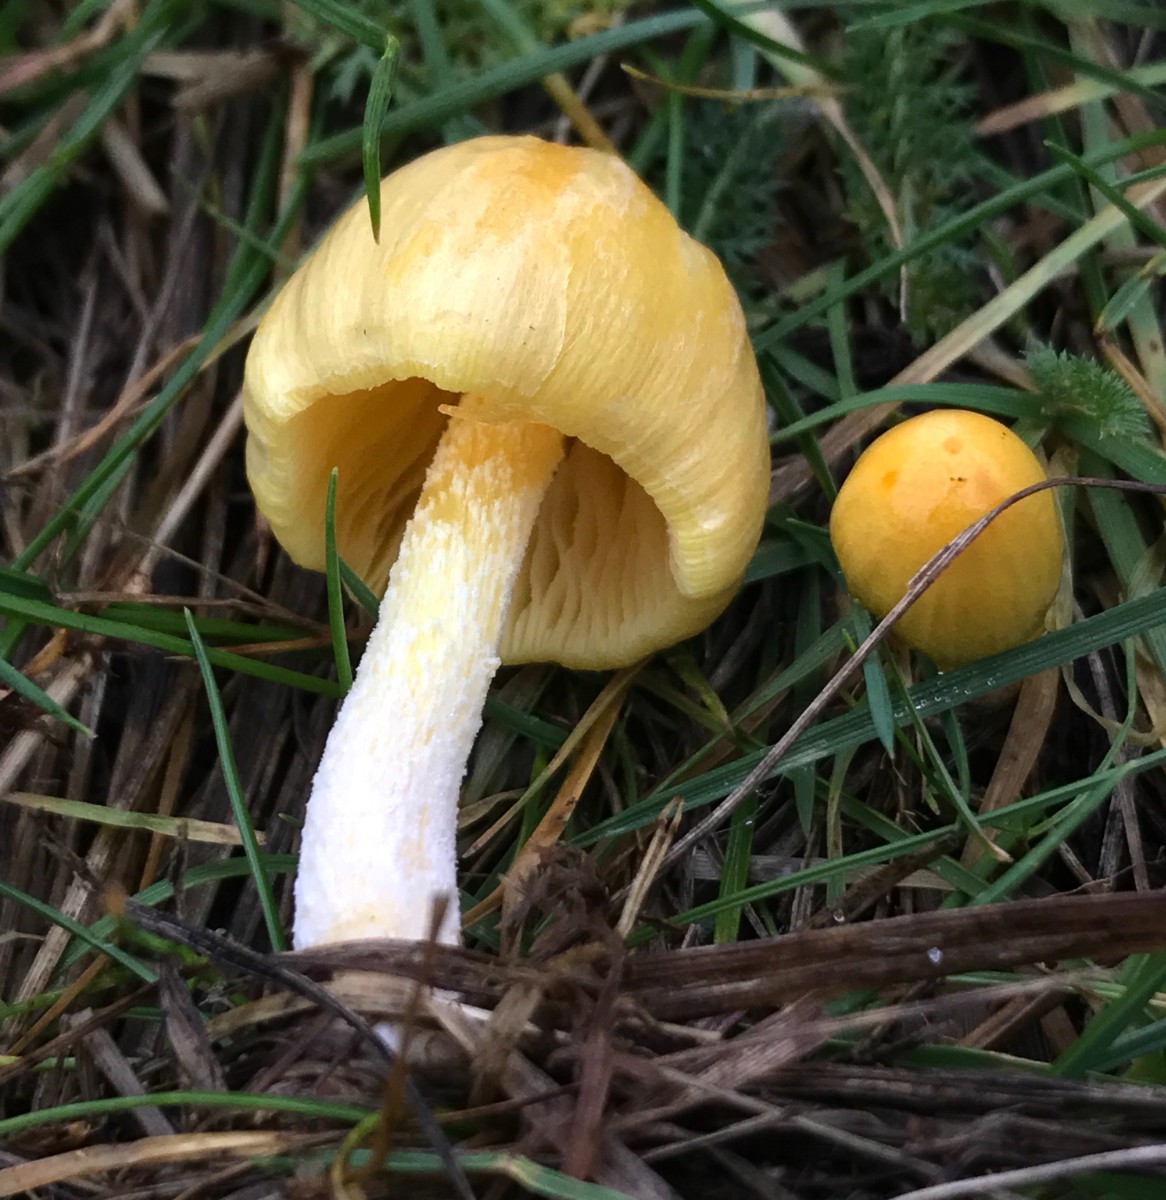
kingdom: Fungi
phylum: Basidiomycota
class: Agaricomycetes
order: Agaricales
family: Bolbitiaceae
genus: Bolbitius
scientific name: Bolbitius titubans
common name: almindelig gulhat
